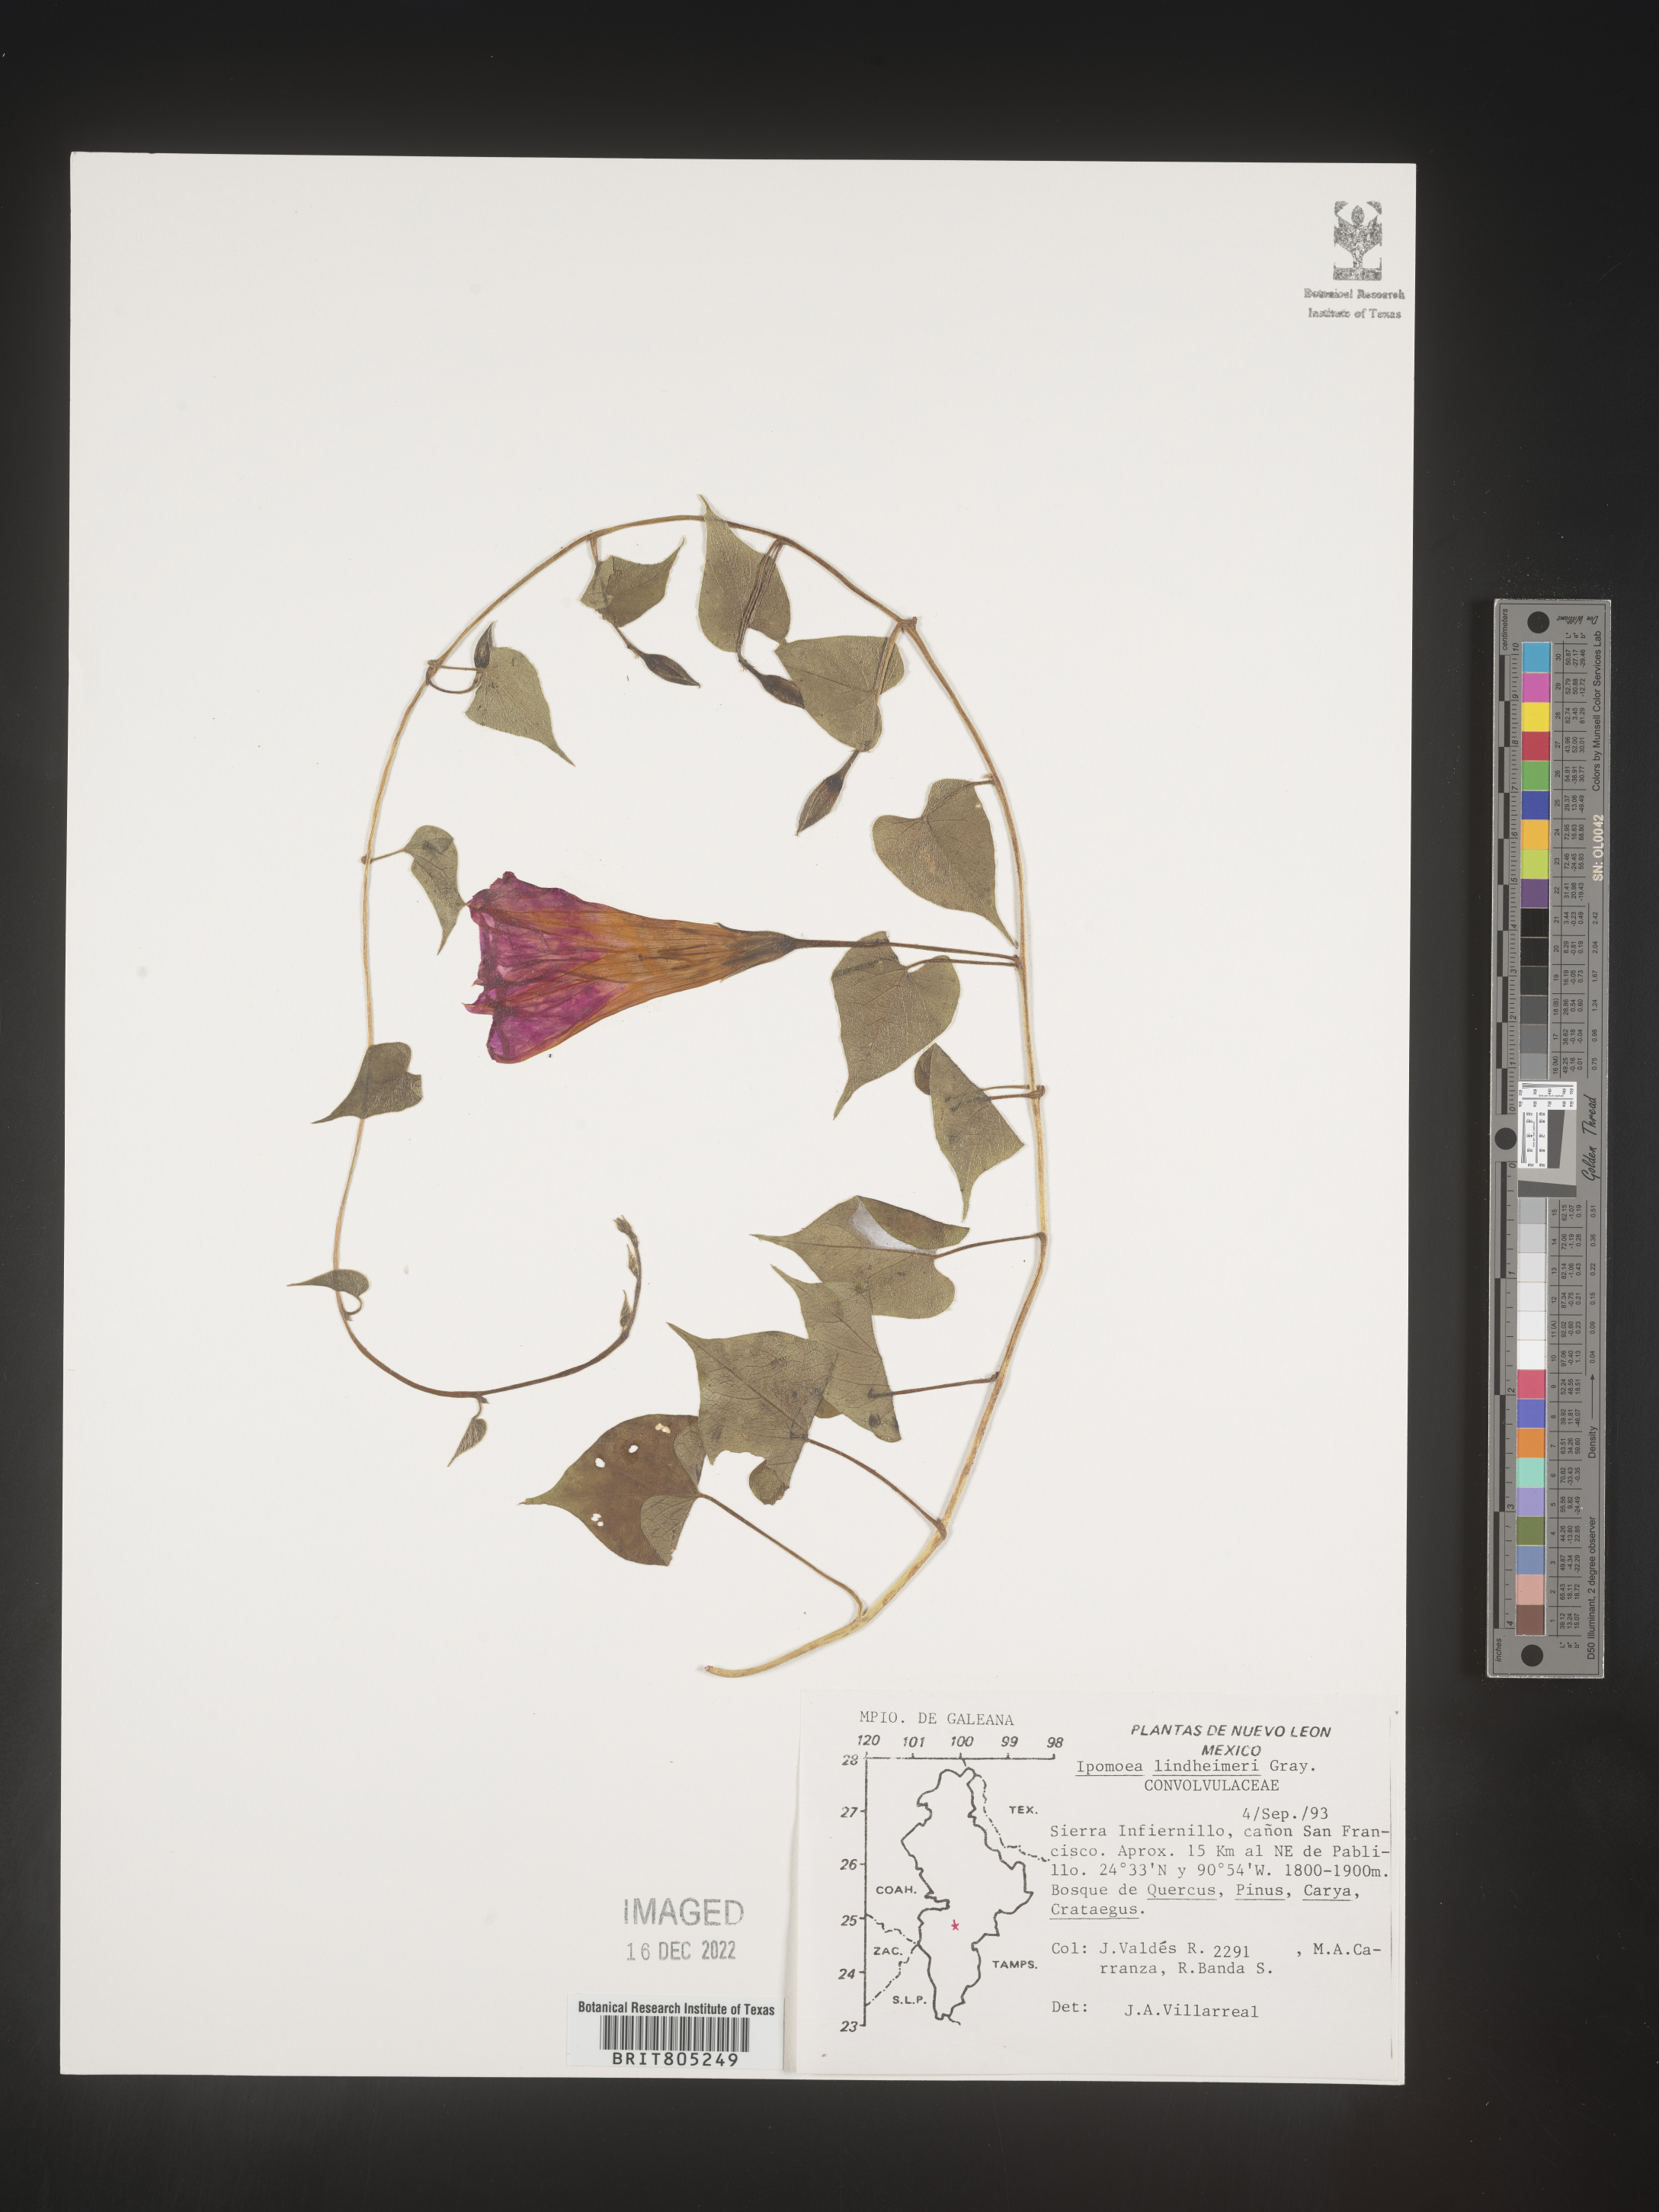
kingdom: Plantae
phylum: Tracheophyta
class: Magnoliopsida
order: Solanales
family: Convolvulaceae
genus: Ipomoea
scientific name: Ipomoea
